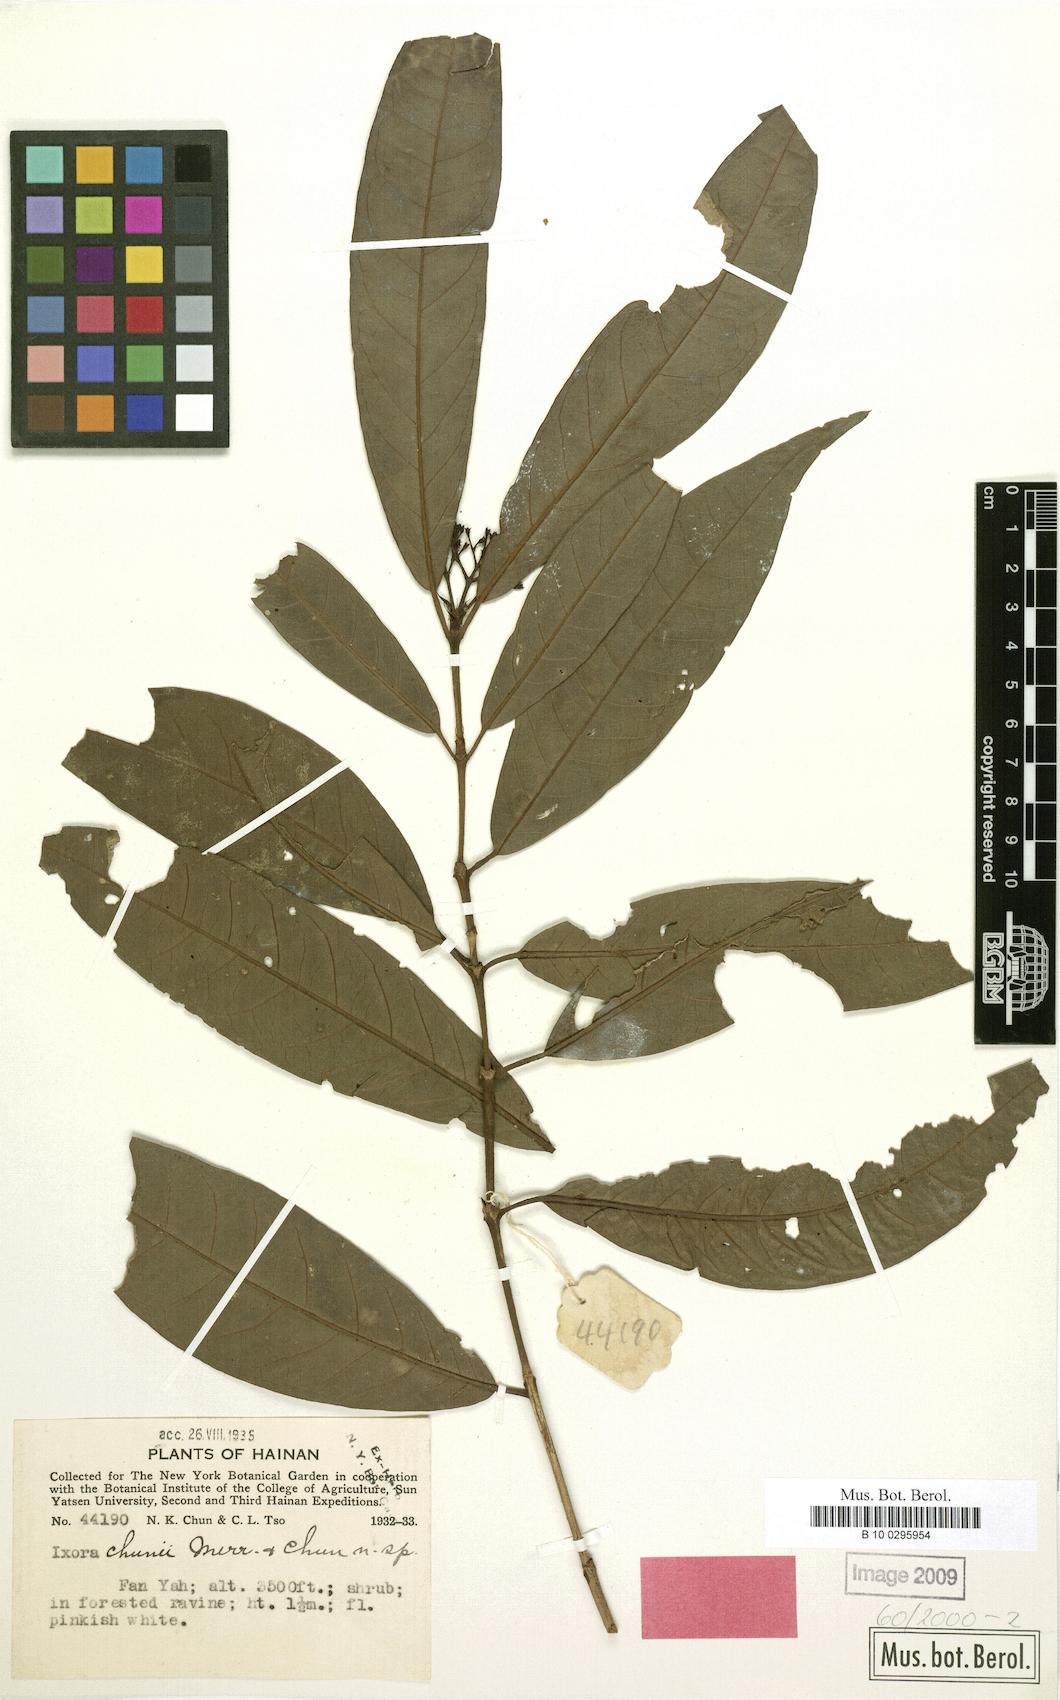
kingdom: Plantae
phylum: Tracheophyta
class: Magnoliopsida
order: Gentianales
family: Rubiaceae
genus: Ixora
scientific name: Ixora
